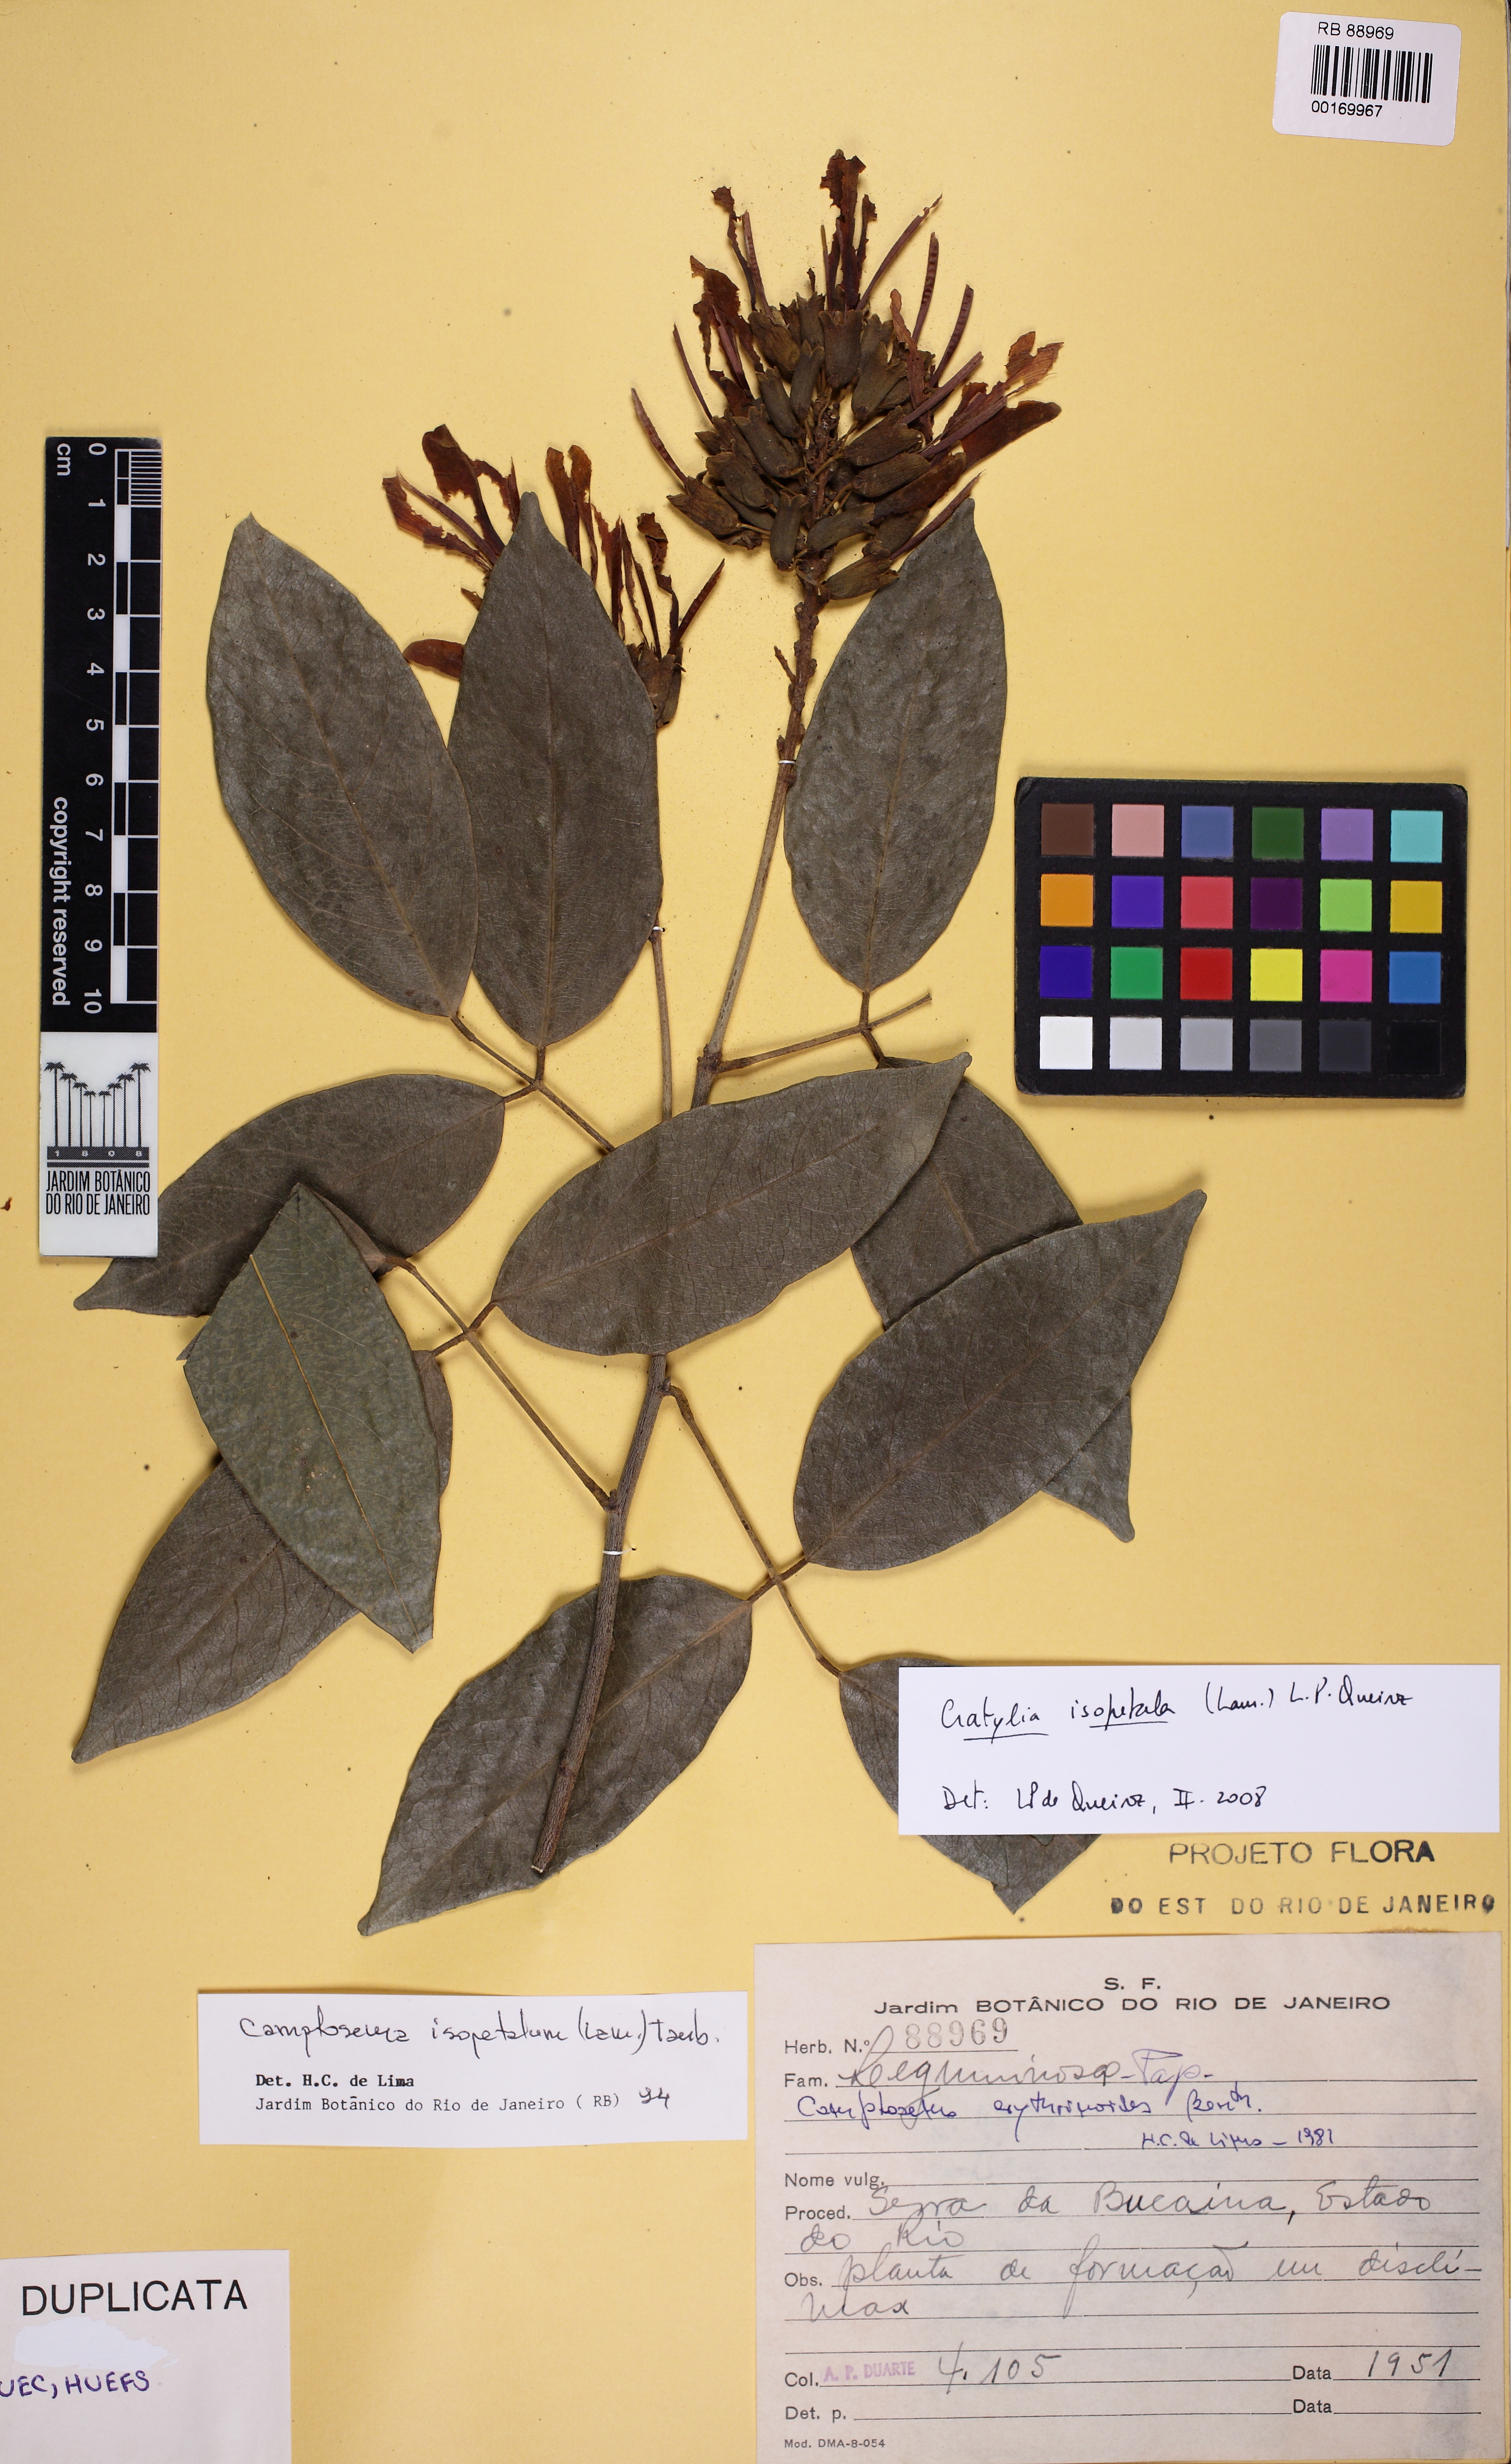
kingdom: Plantae
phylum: Tracheophyta
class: Magnoliopsida
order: Fabales
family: Fabaceae
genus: Cratylia
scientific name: Cratylia isopetala
